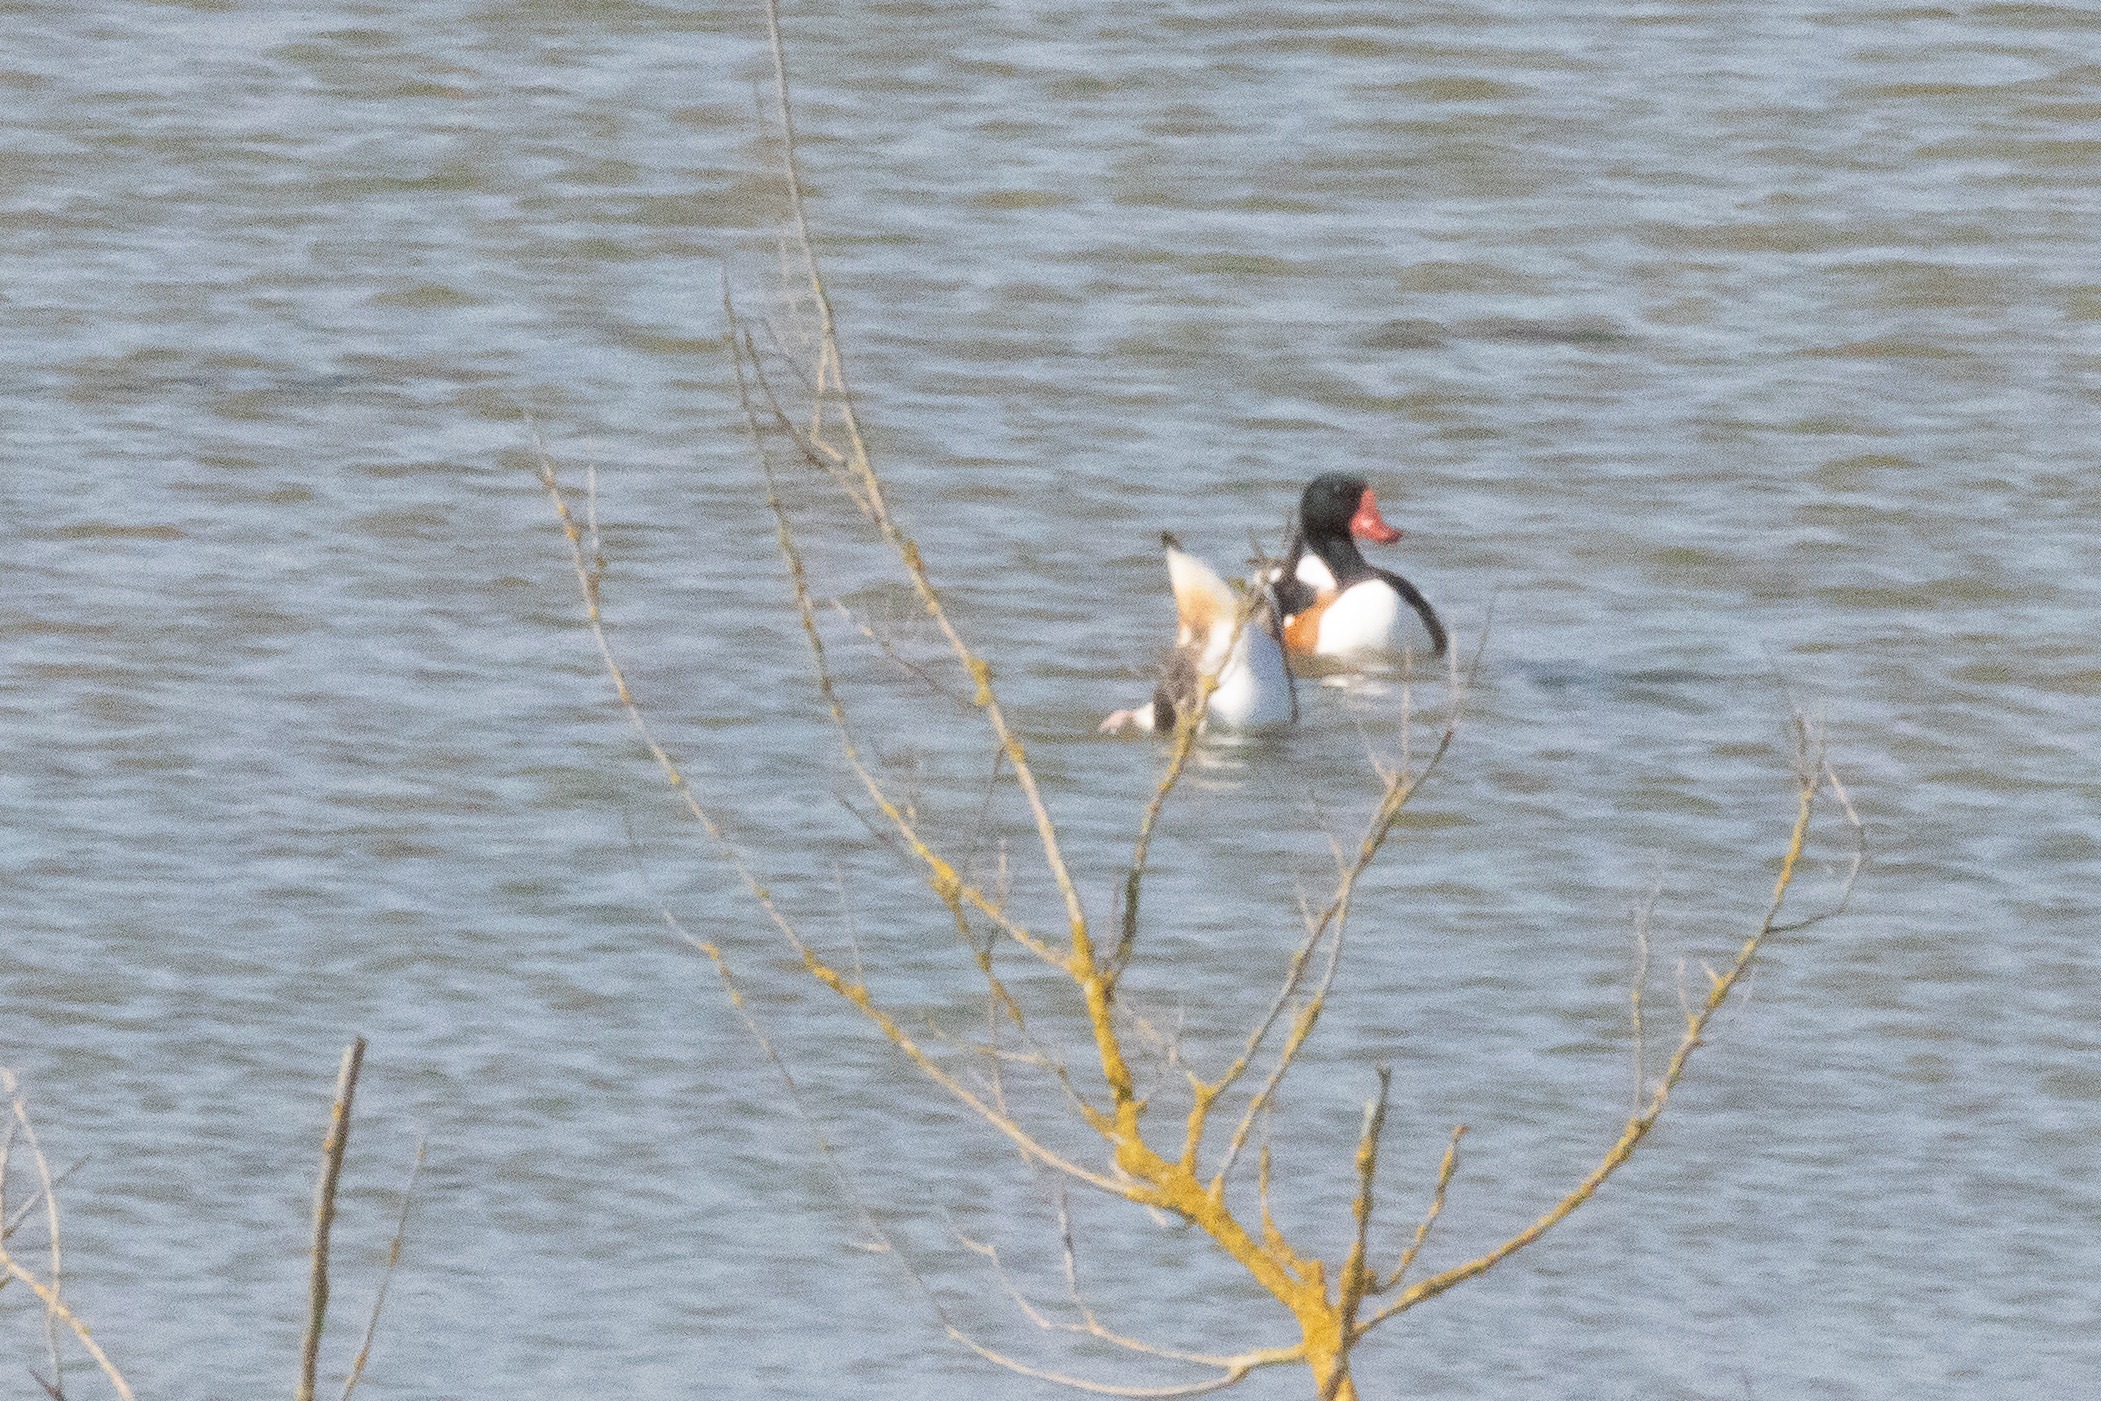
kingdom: Animalia
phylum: Chordata
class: Aves
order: Anseriformes
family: Anatidae
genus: Tadorna
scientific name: Tadorna tadorna
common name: Gravand
